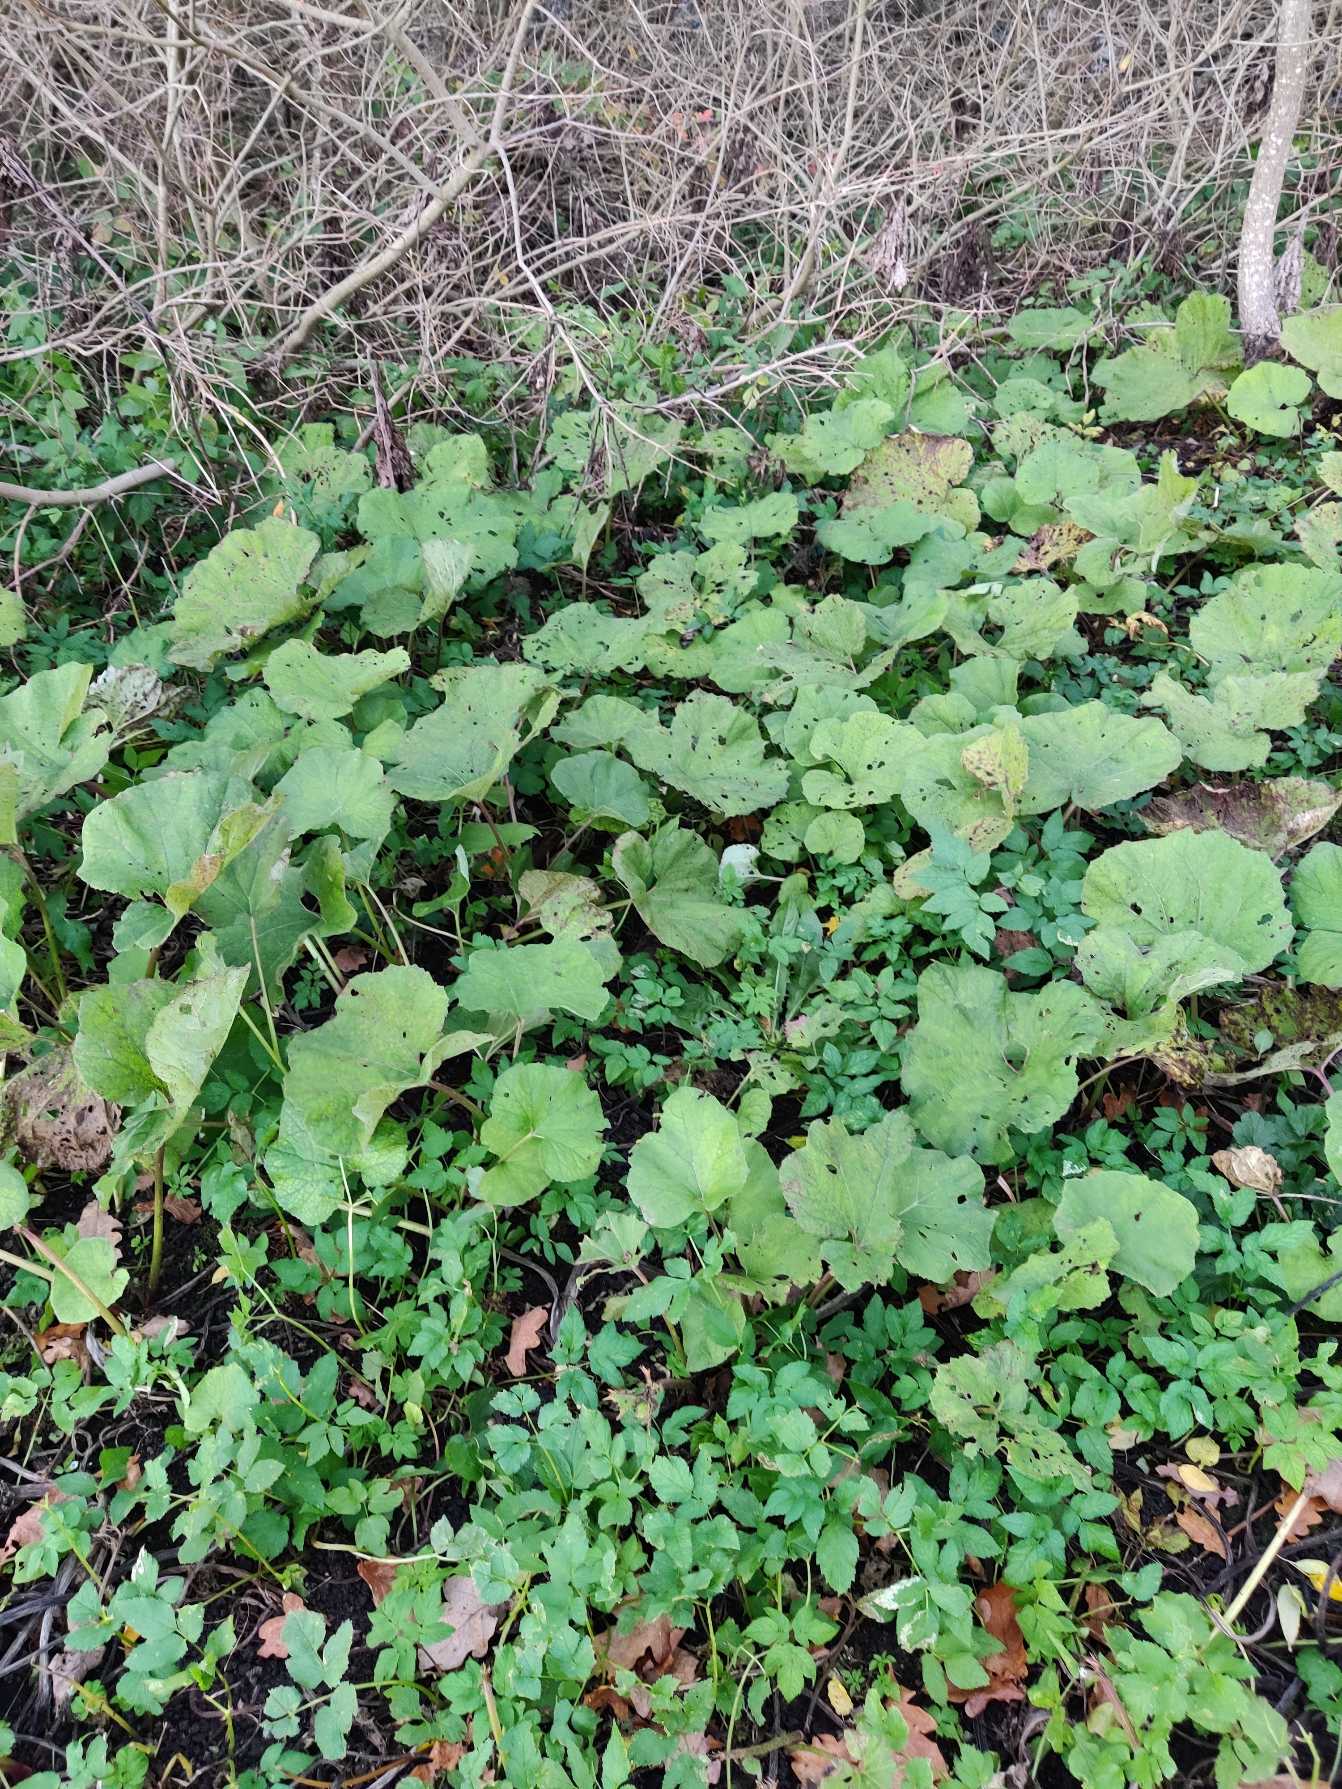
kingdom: Plantae
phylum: Tracheophyta
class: Magnoliopsida
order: Asterales
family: Asteraceae
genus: Petasites
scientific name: Petasites hybridus
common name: Rød hestehov
